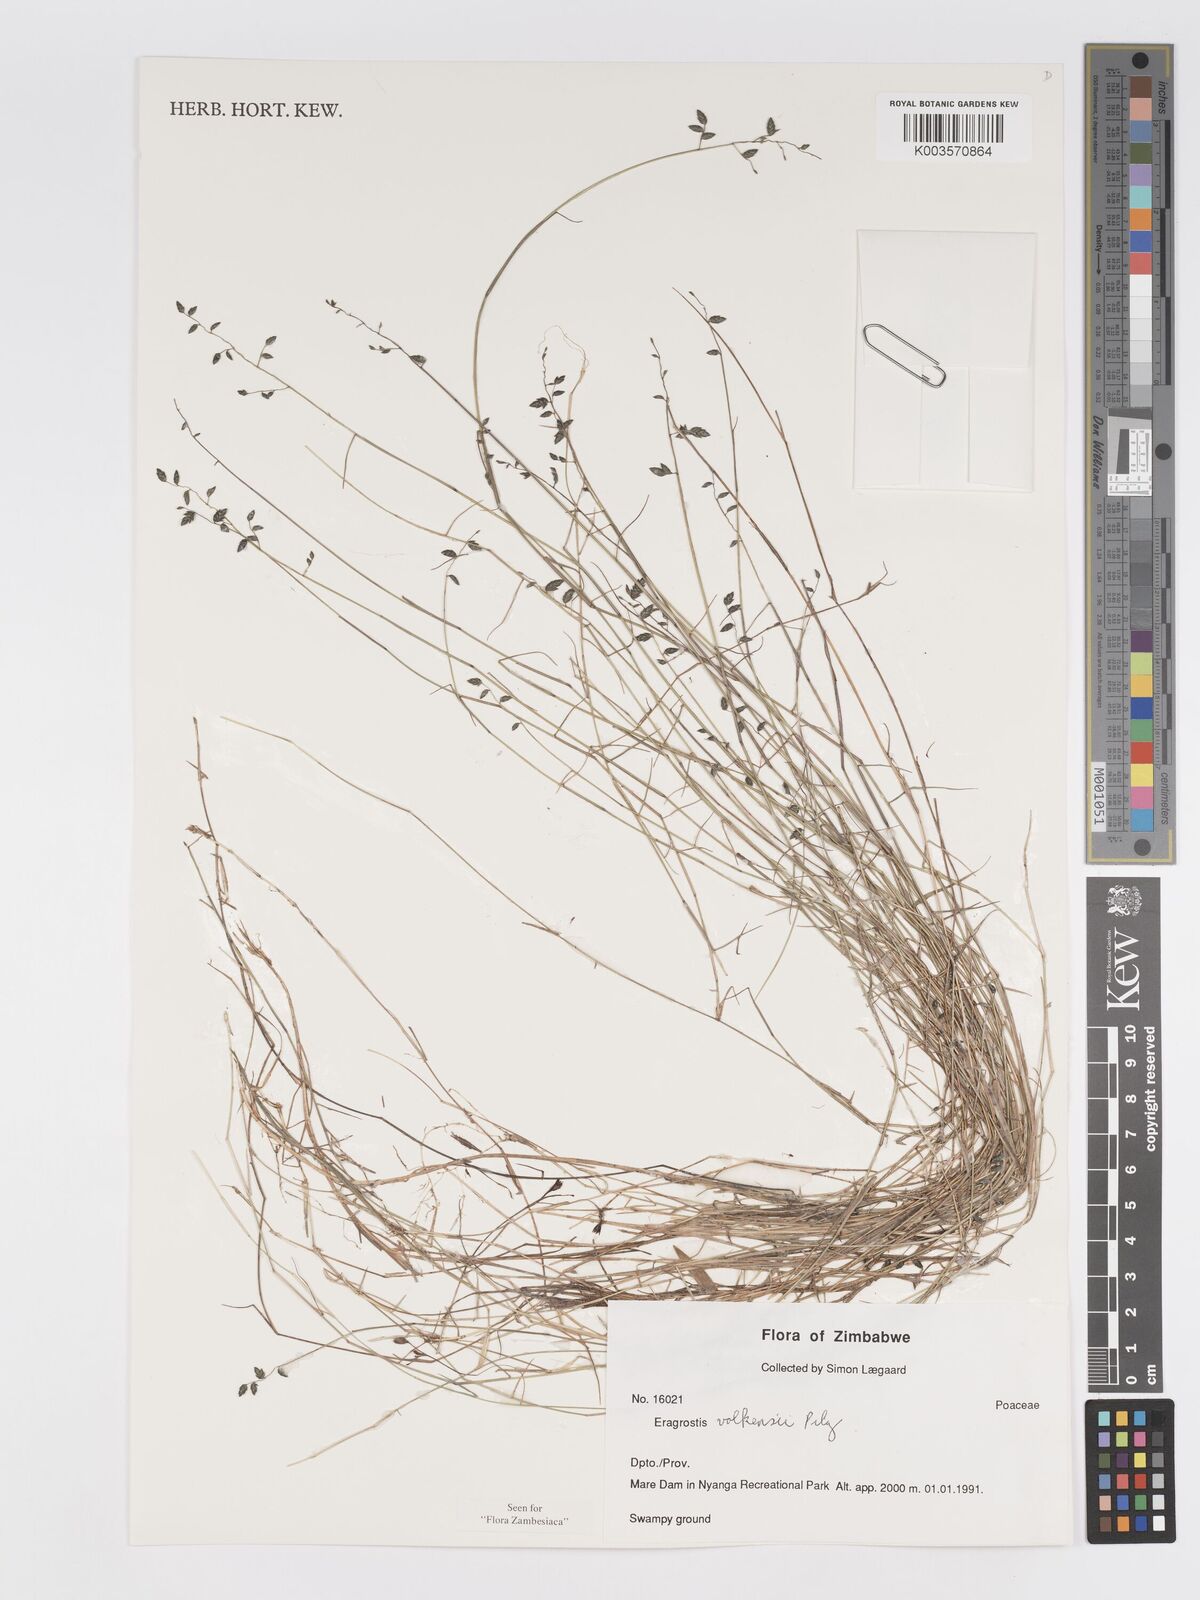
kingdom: Plantae
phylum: Tracheophyta
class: Liliopsida
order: Poales
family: Poaceae
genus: Eragrostis
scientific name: Eragrostis volkensii
